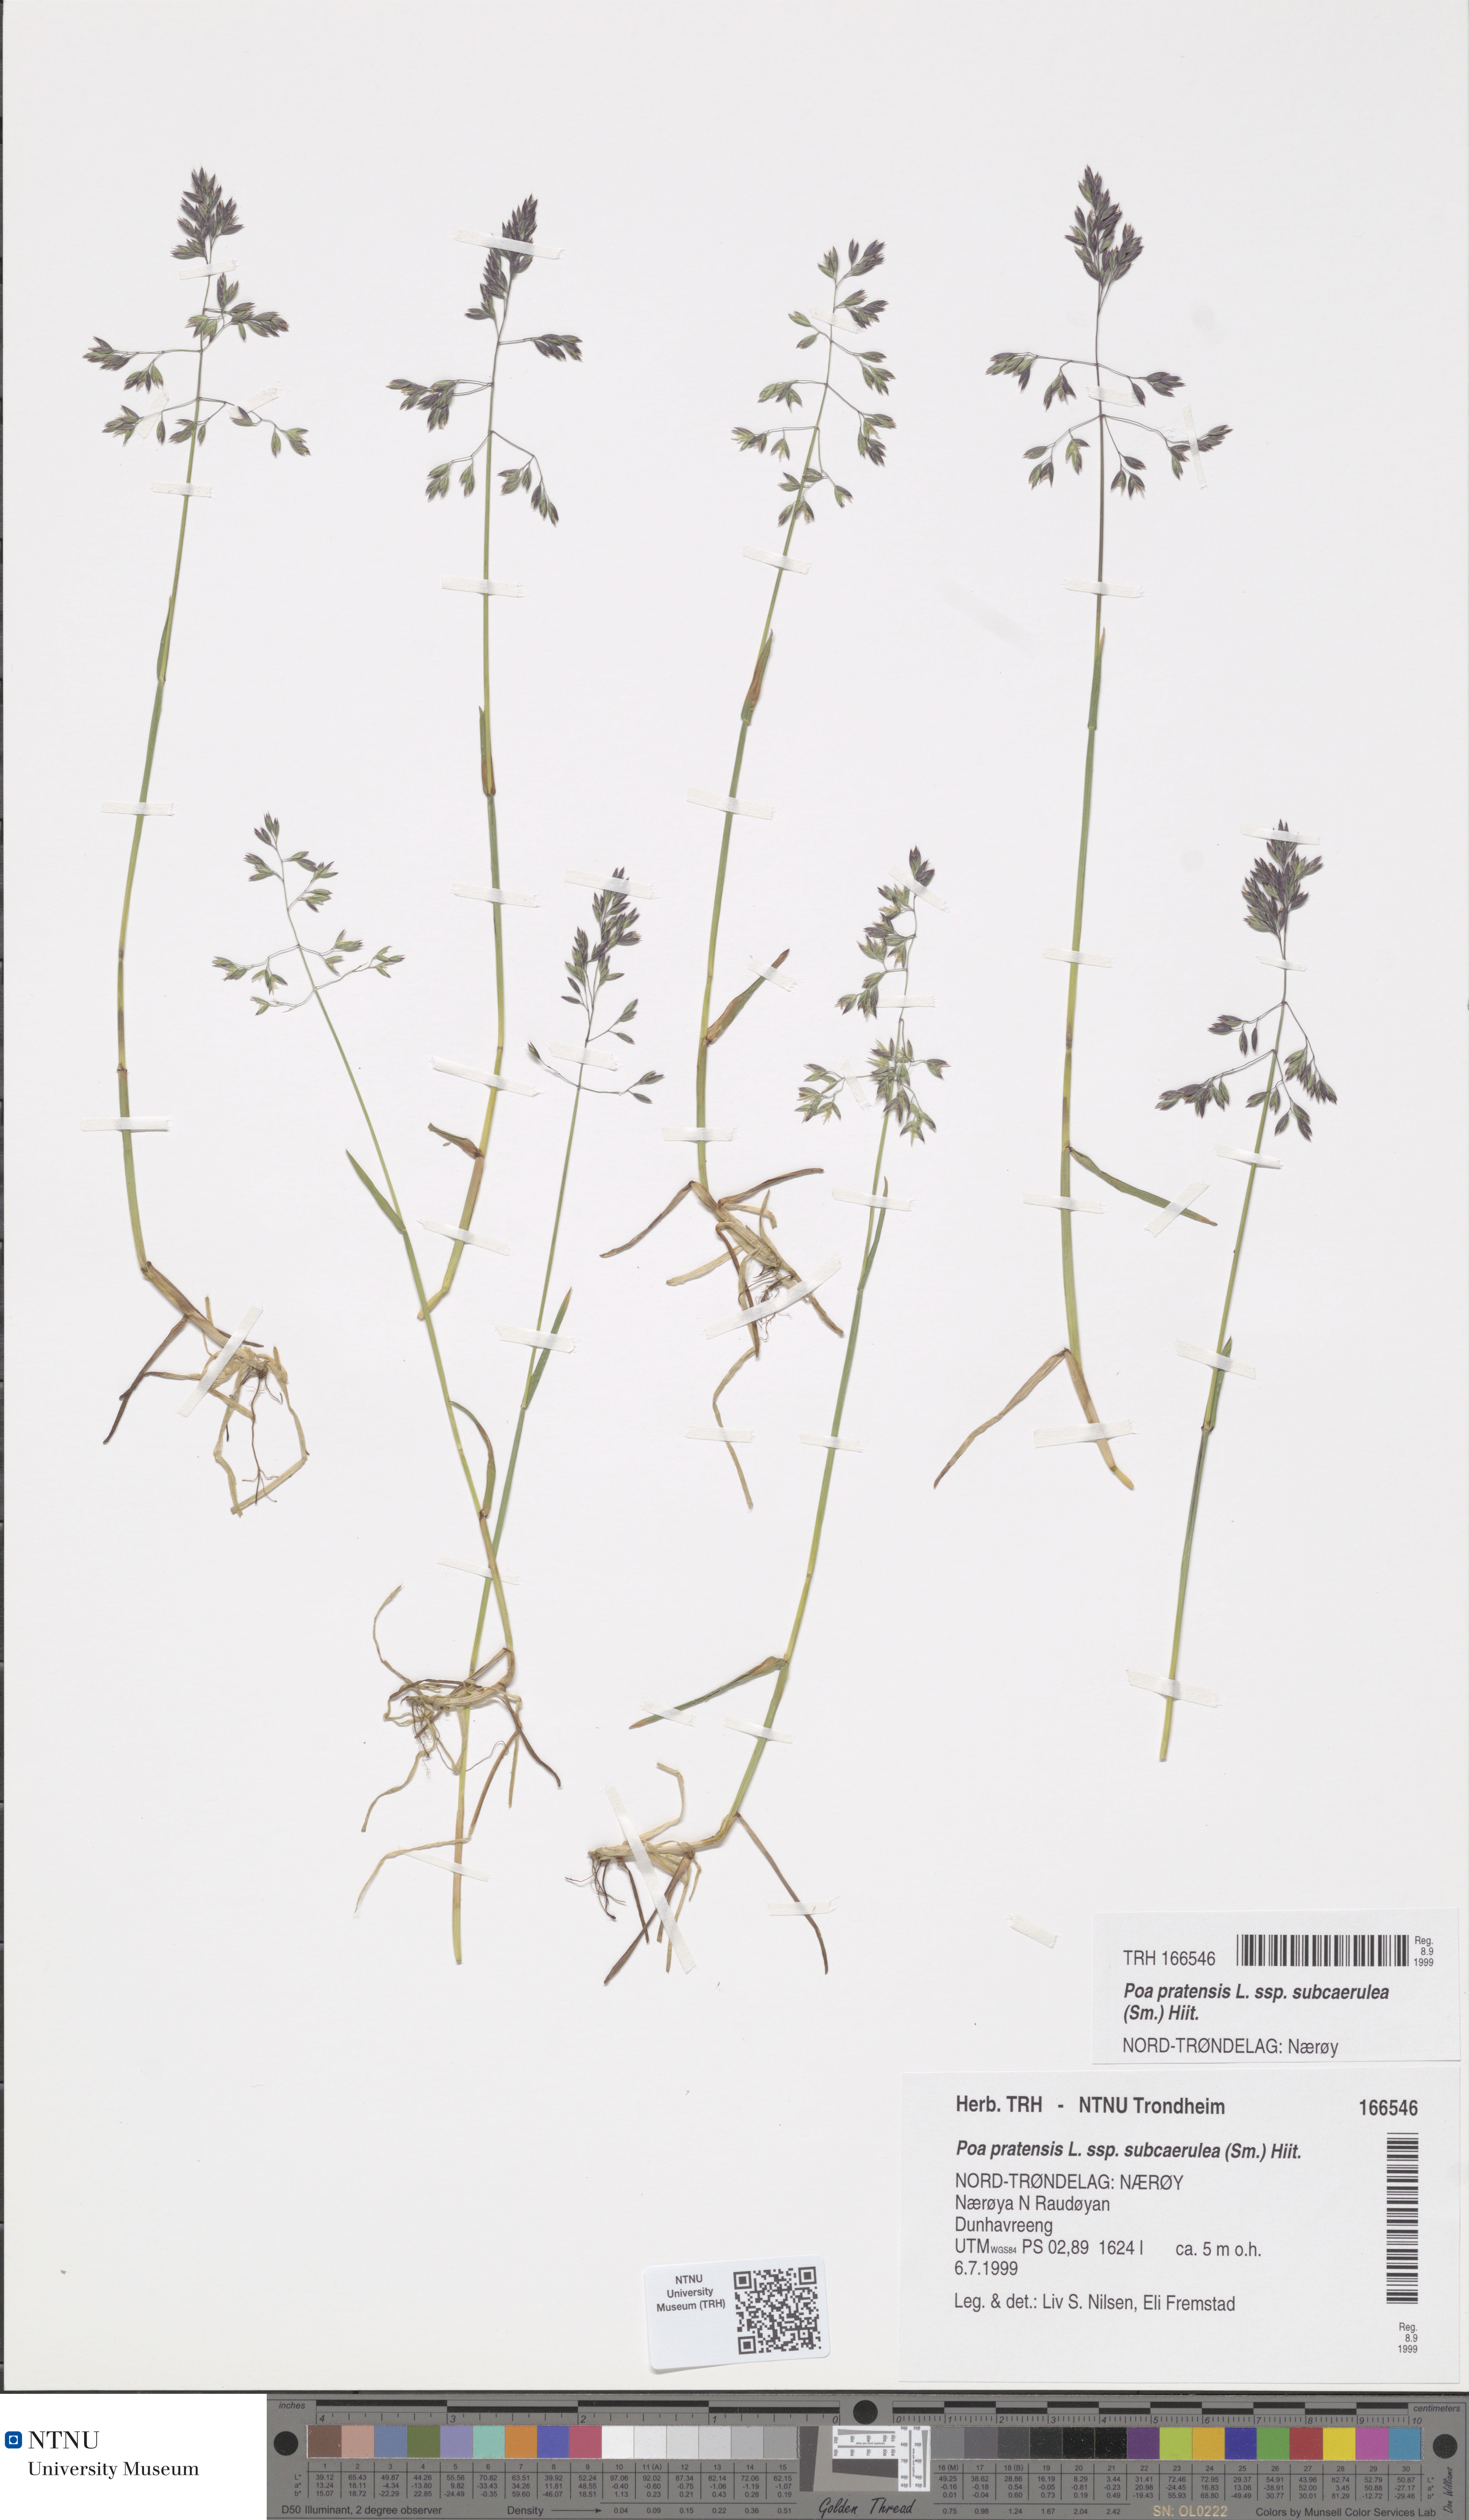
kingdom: Plantae
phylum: Tracheophyta
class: Liliopsida
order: Poales
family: Poaceae
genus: Poa
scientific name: Poa humilis
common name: Spreading meadow-grass
